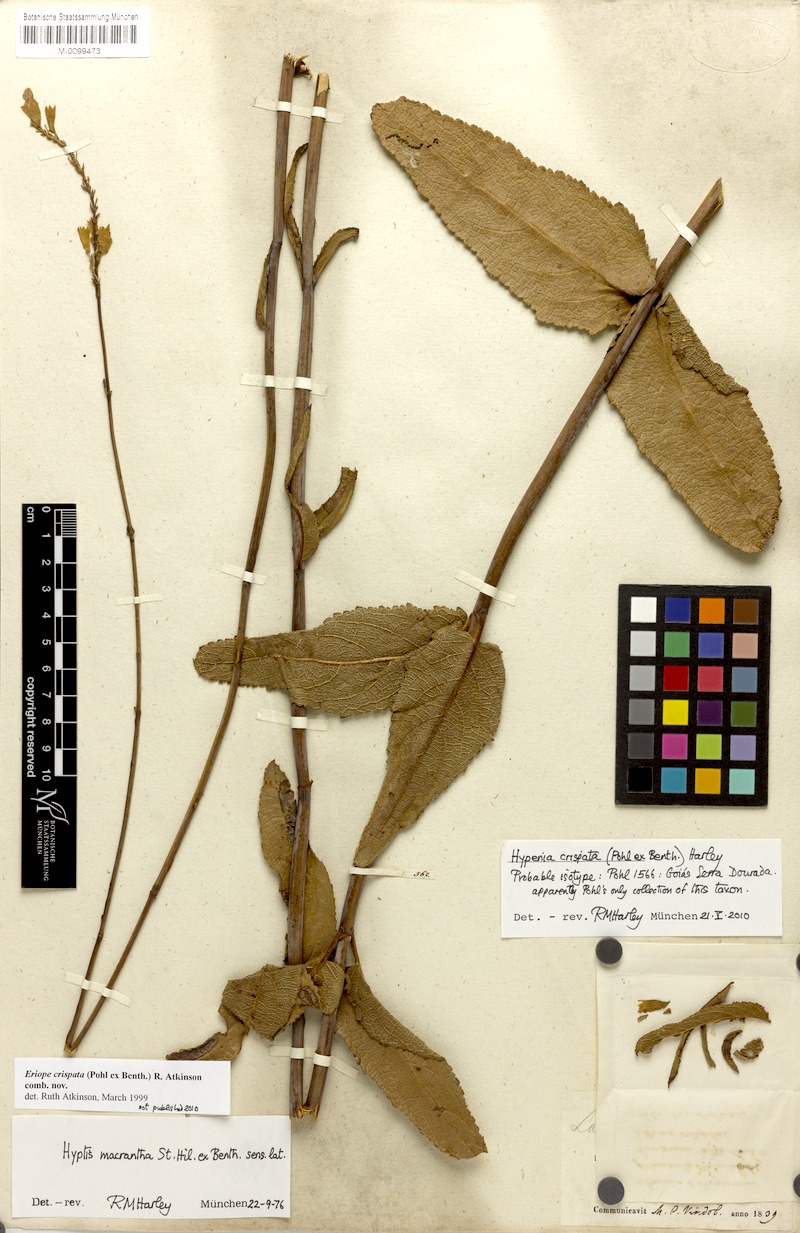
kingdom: Plantae
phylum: Tracheophyta
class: Magnoliopsida
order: Lamiales
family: Lamiaceae
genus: Hypenia
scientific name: Hypenia crispata
